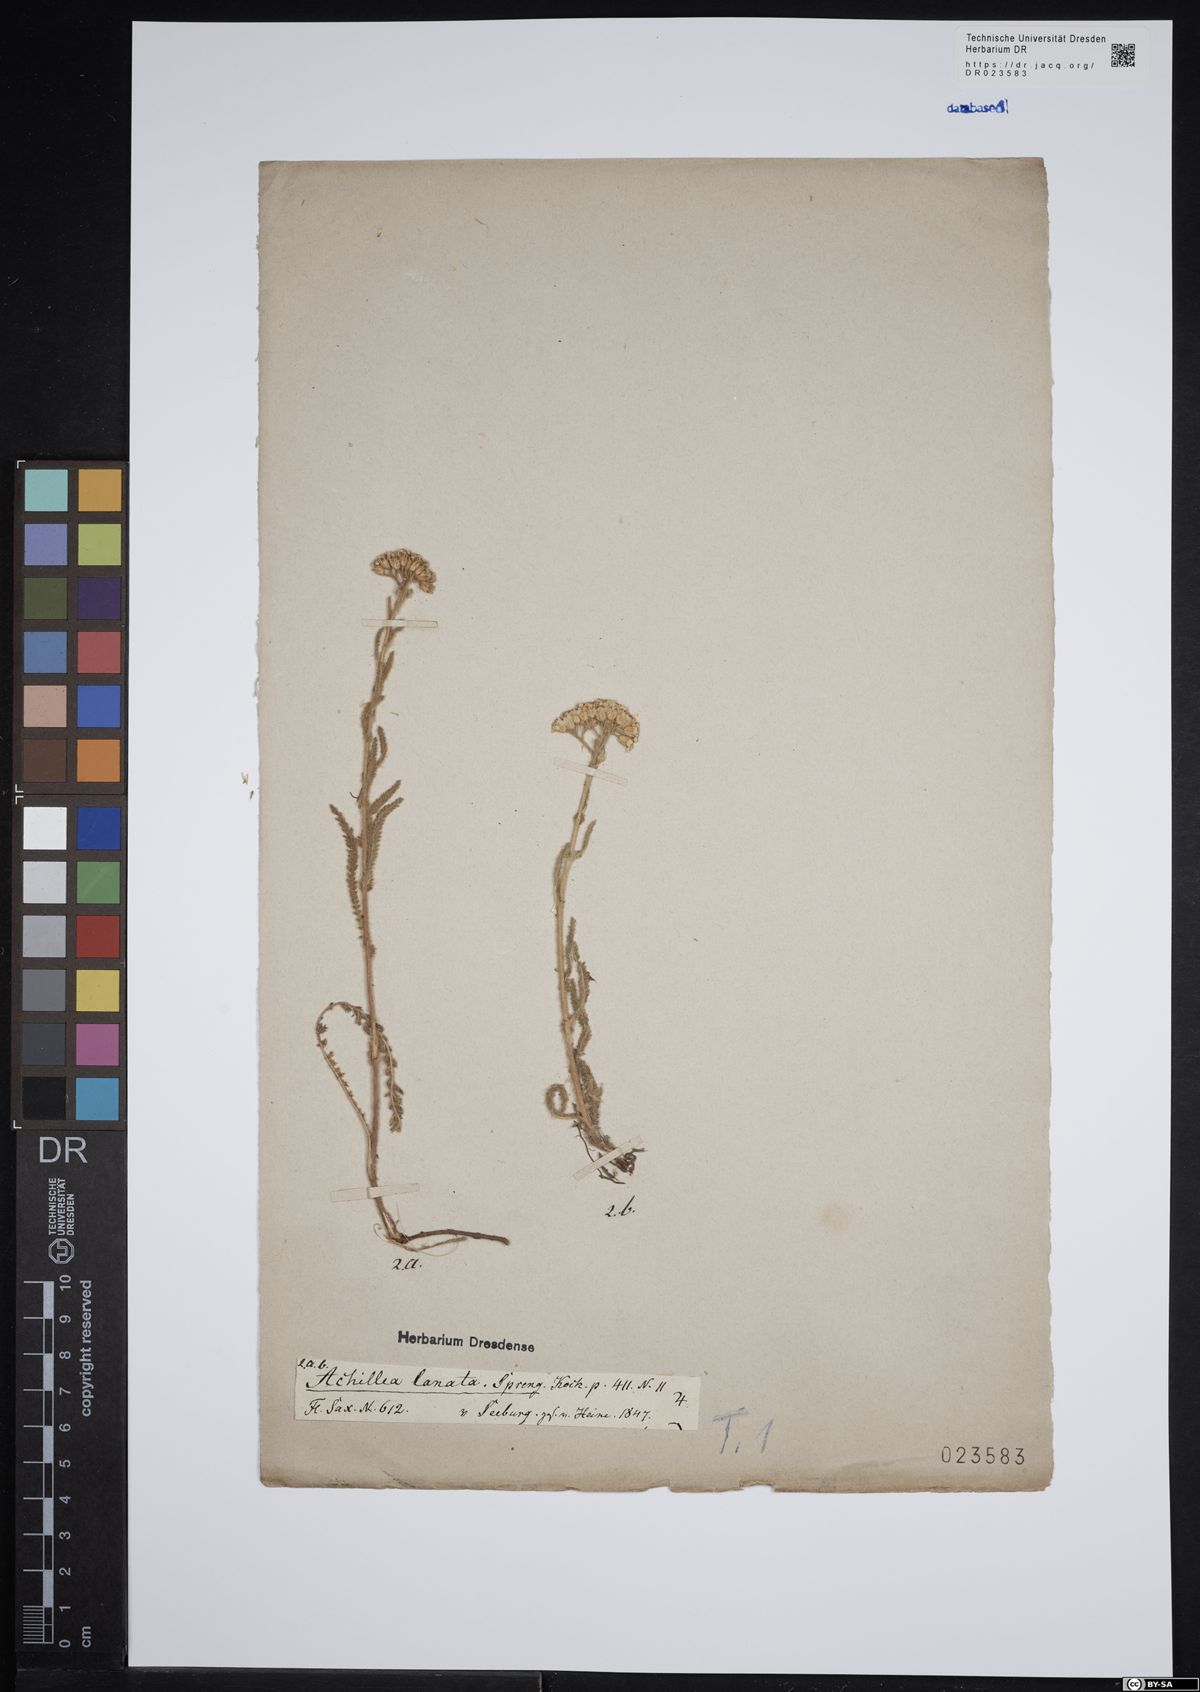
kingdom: Plantae
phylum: Tracheophyta
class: Magnoliopsida
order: Asterales
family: Asteraceae
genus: Achillea
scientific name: Achillea pannonica
